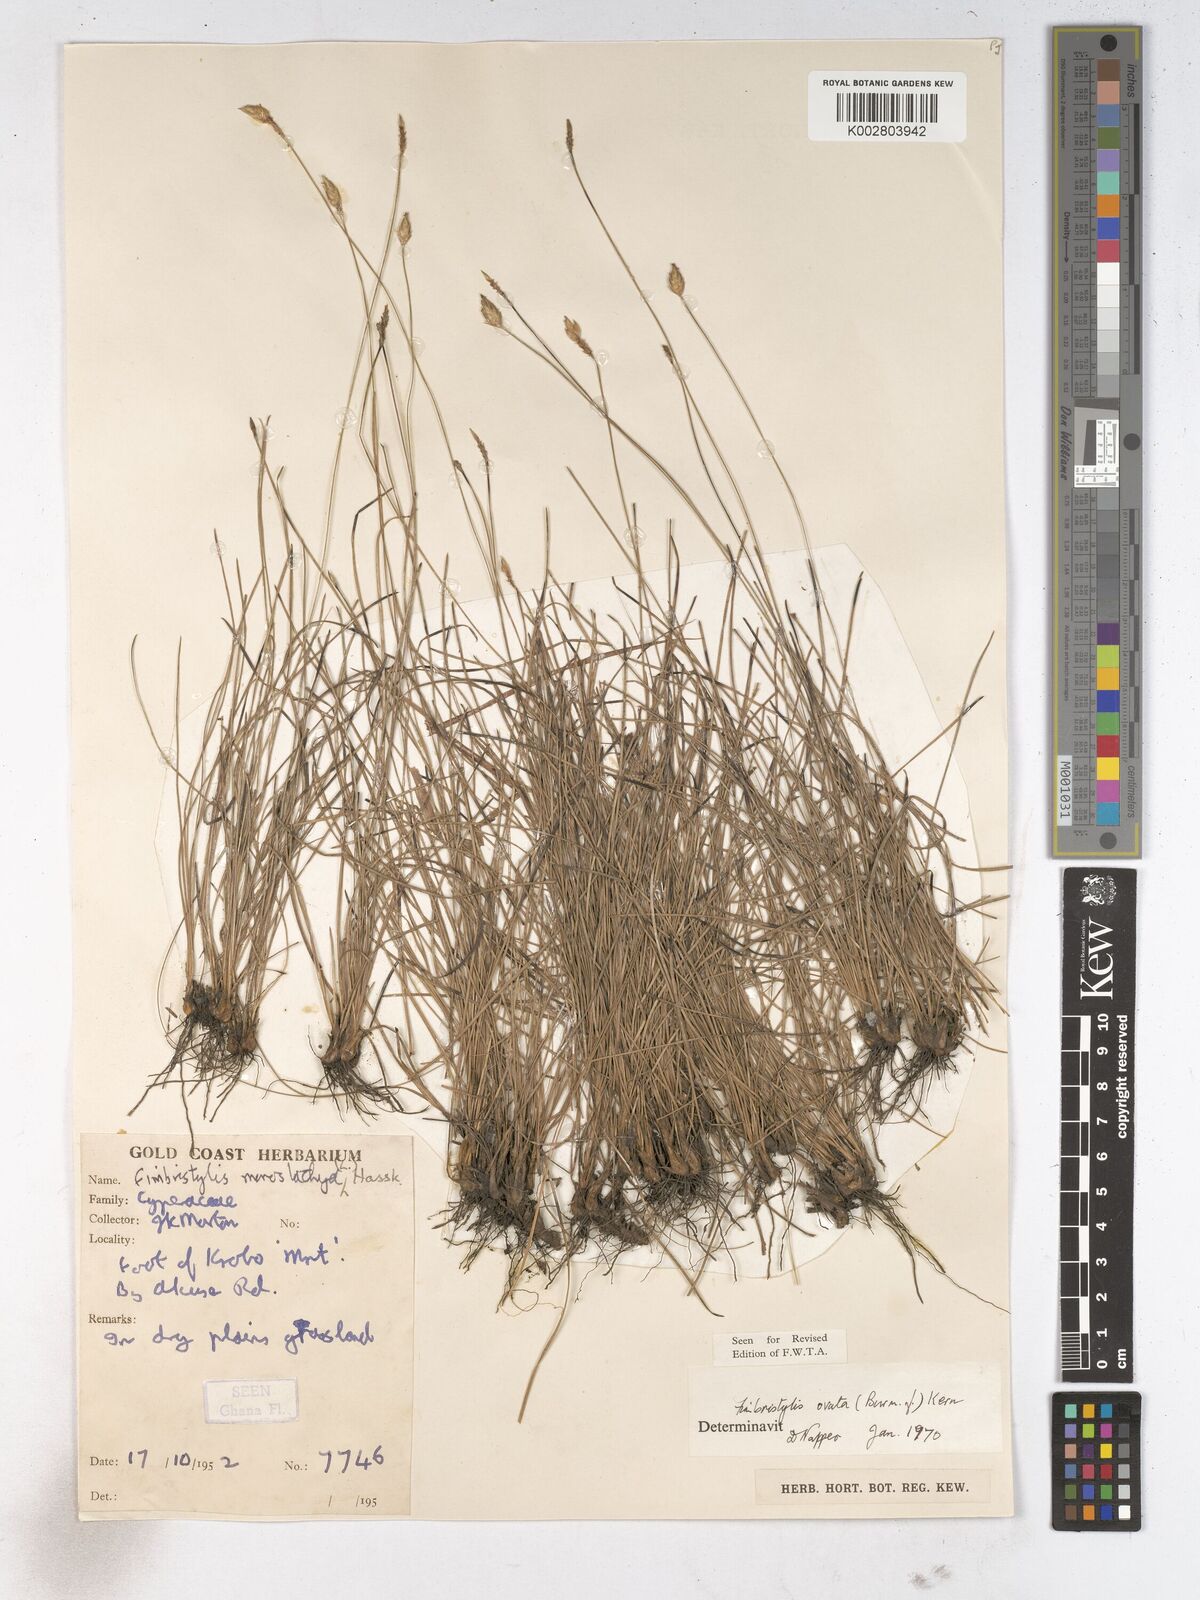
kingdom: Plantae
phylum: Tracheophyta
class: Liliopsida
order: Poales
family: Cyperaceae
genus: Abildgaardia
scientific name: Abildgaardia ovata
